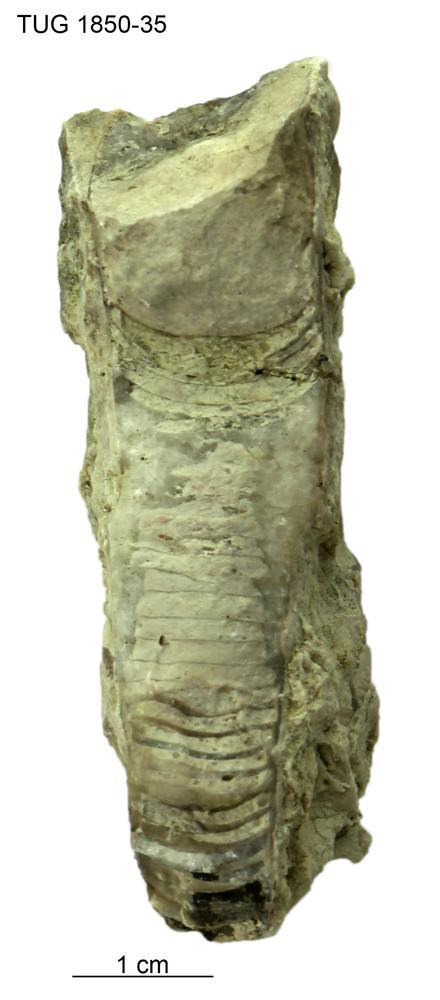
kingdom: Animalia
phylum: Mollusca
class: Cephalopoda
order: Nautilida
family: Nautilidae
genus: Dawsonoceras
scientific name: Dawsonoceras
